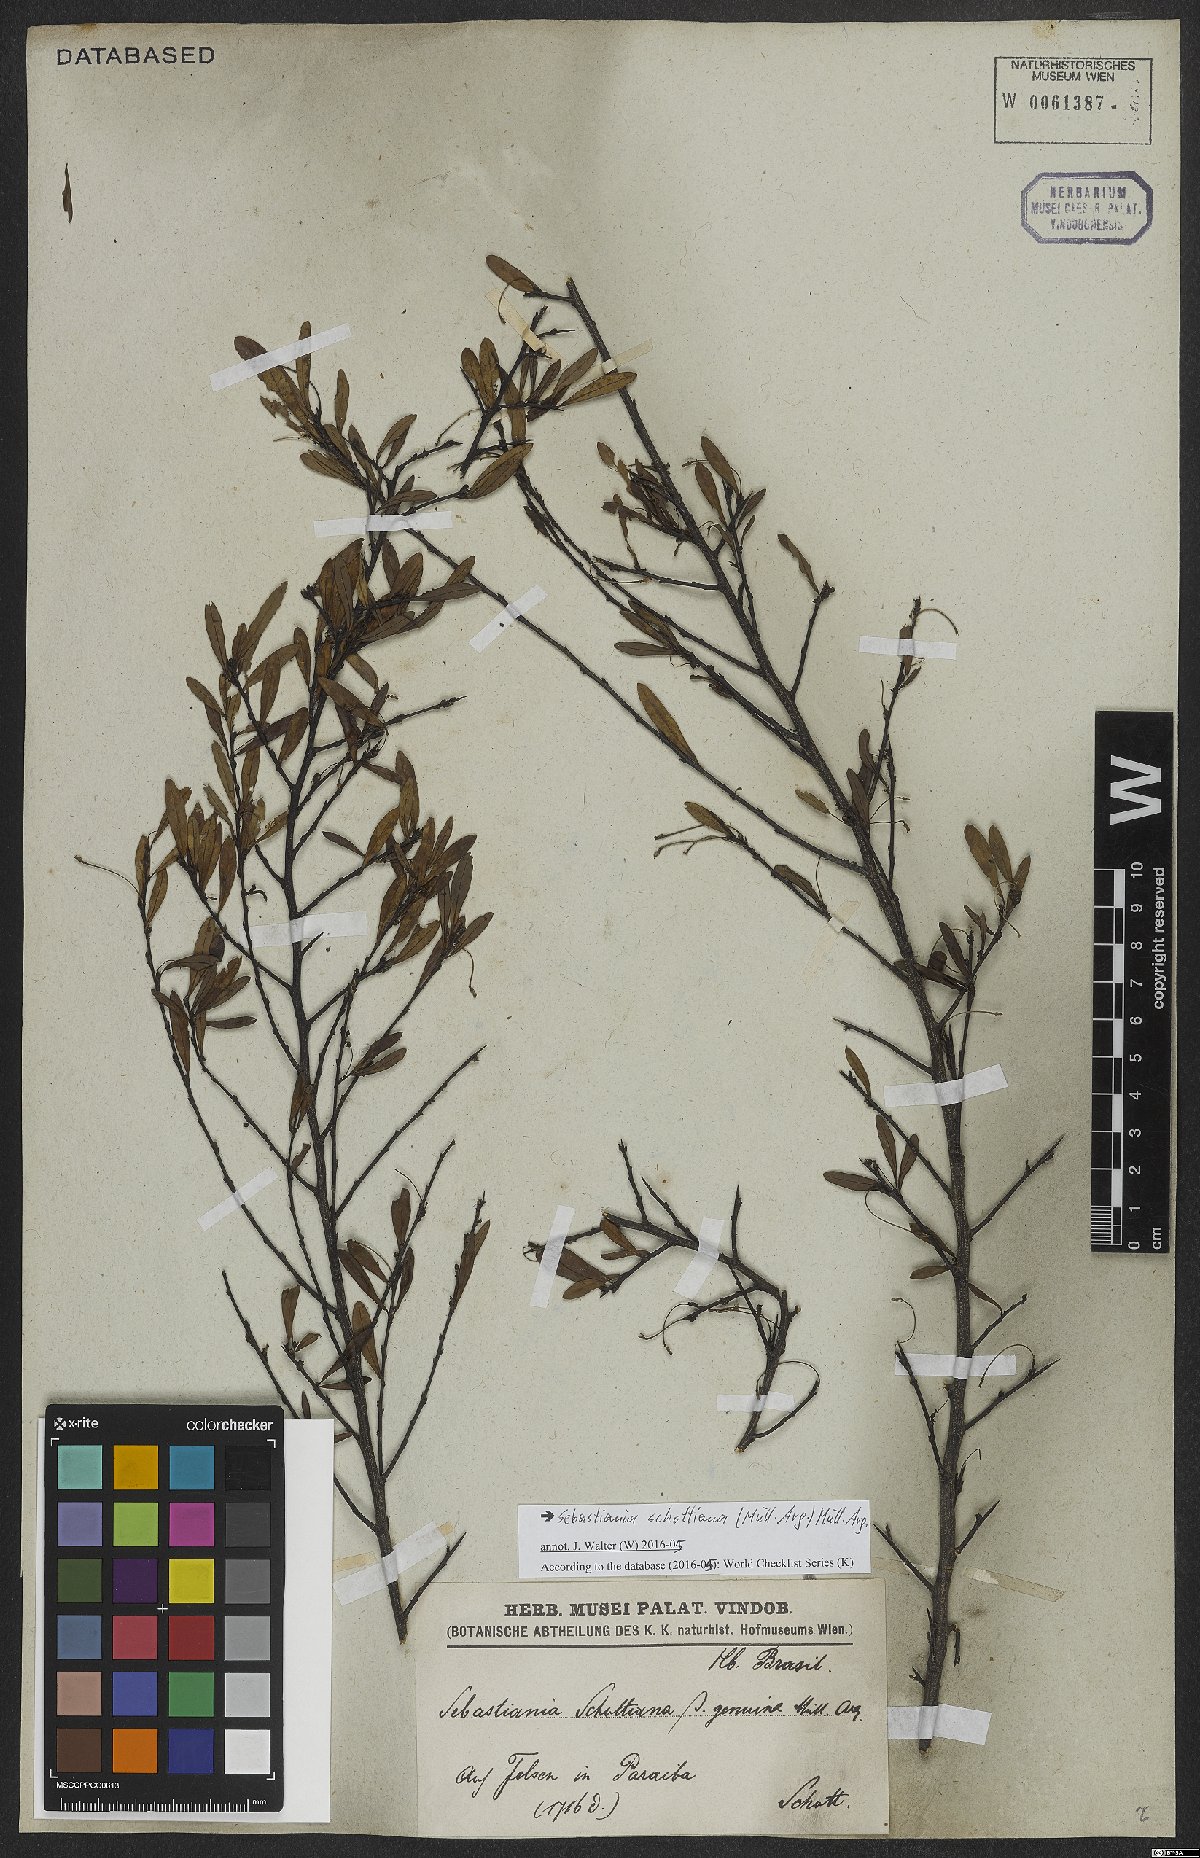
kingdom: Plantae
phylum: Tracheophyta
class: Magnoliopsida
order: Malpighiales
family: Euphorbiaceae
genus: Sebastiania
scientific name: Sebastiania schottiana
